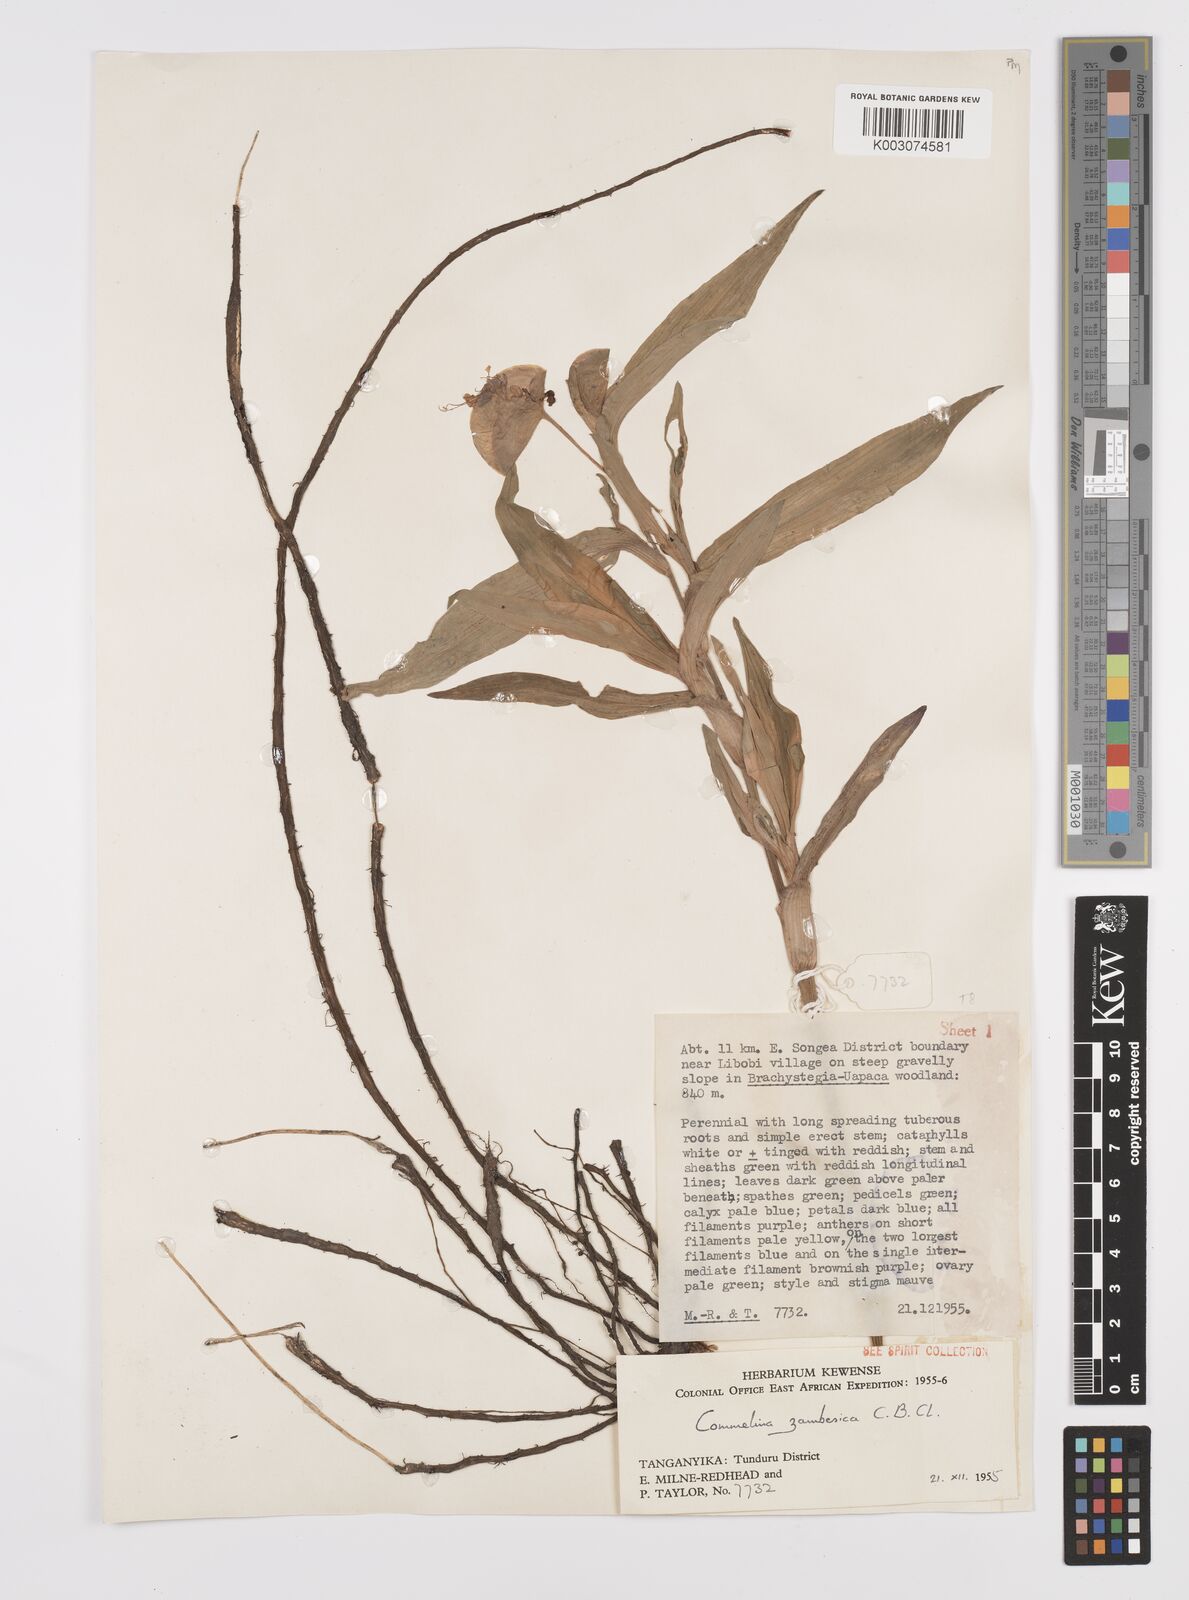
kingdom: Plantae
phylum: Tracheophyta
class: Liliopsida
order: Commelinales
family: Commelinaceae
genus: Commelina
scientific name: Commelina zambesica
